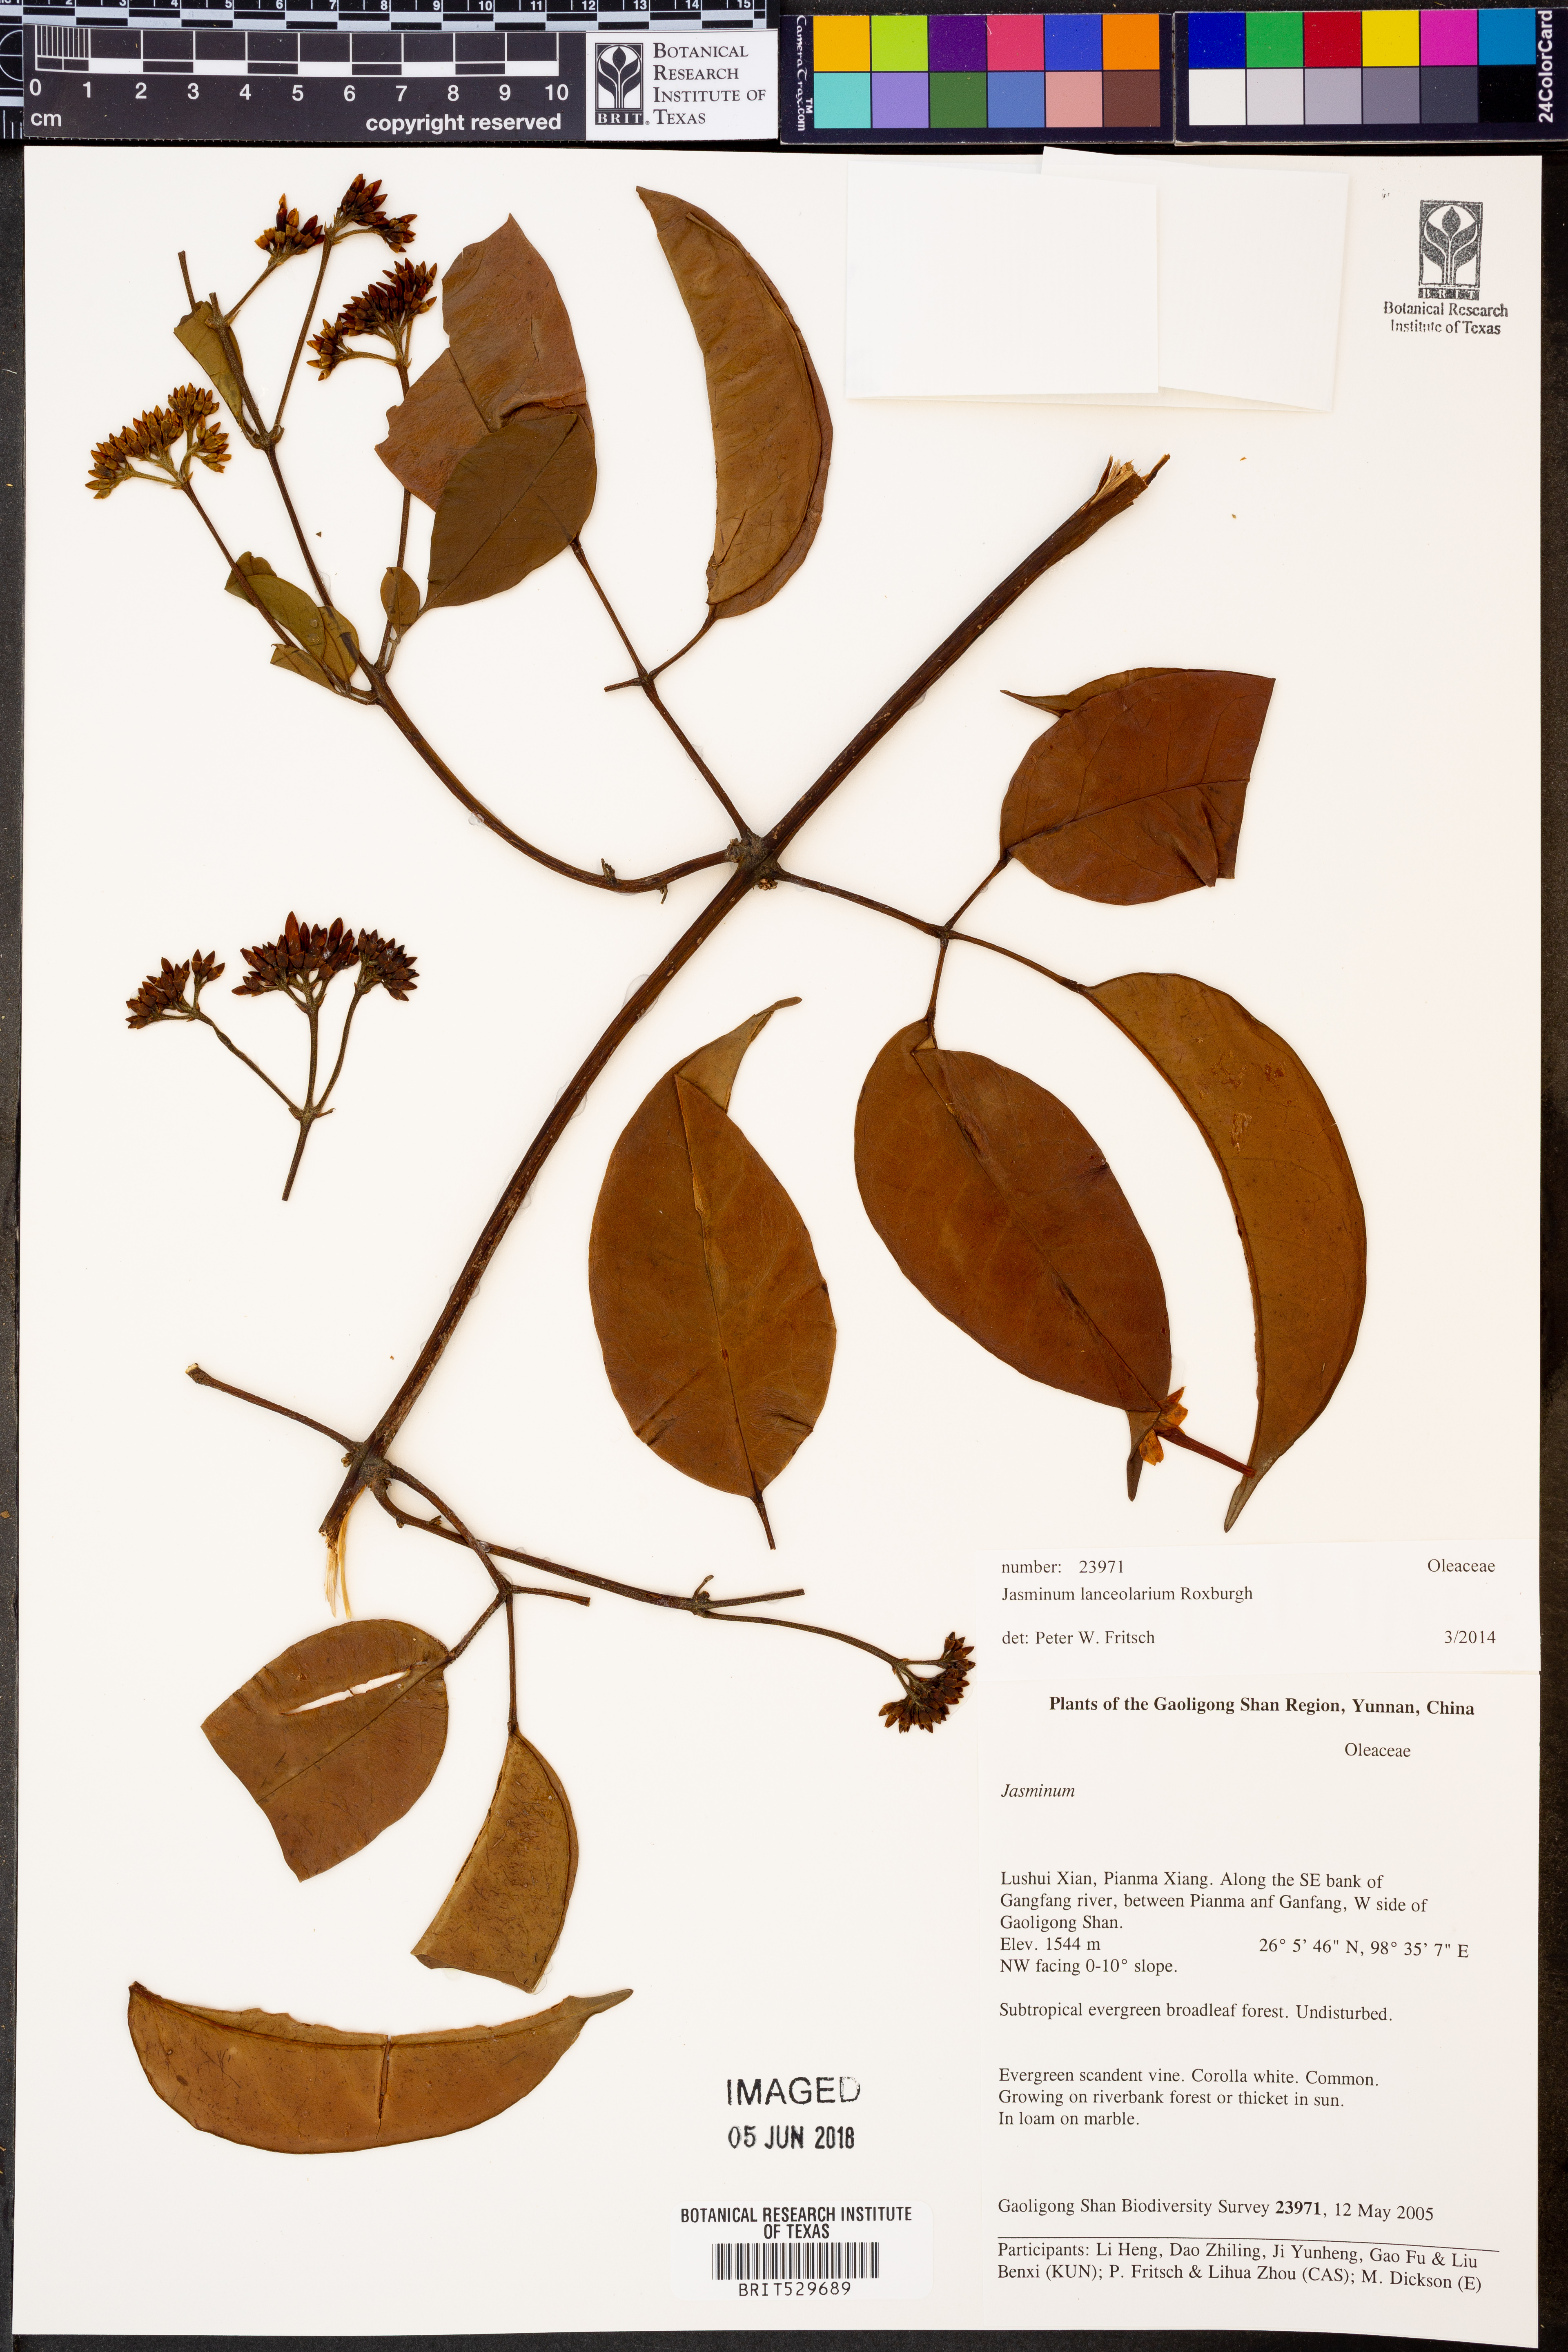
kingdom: Plantae
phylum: Tracheophyta
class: Magnoliopsida
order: Lamiales
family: Oleaceae
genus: Jasminum
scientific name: Jasminum lanceolaria
